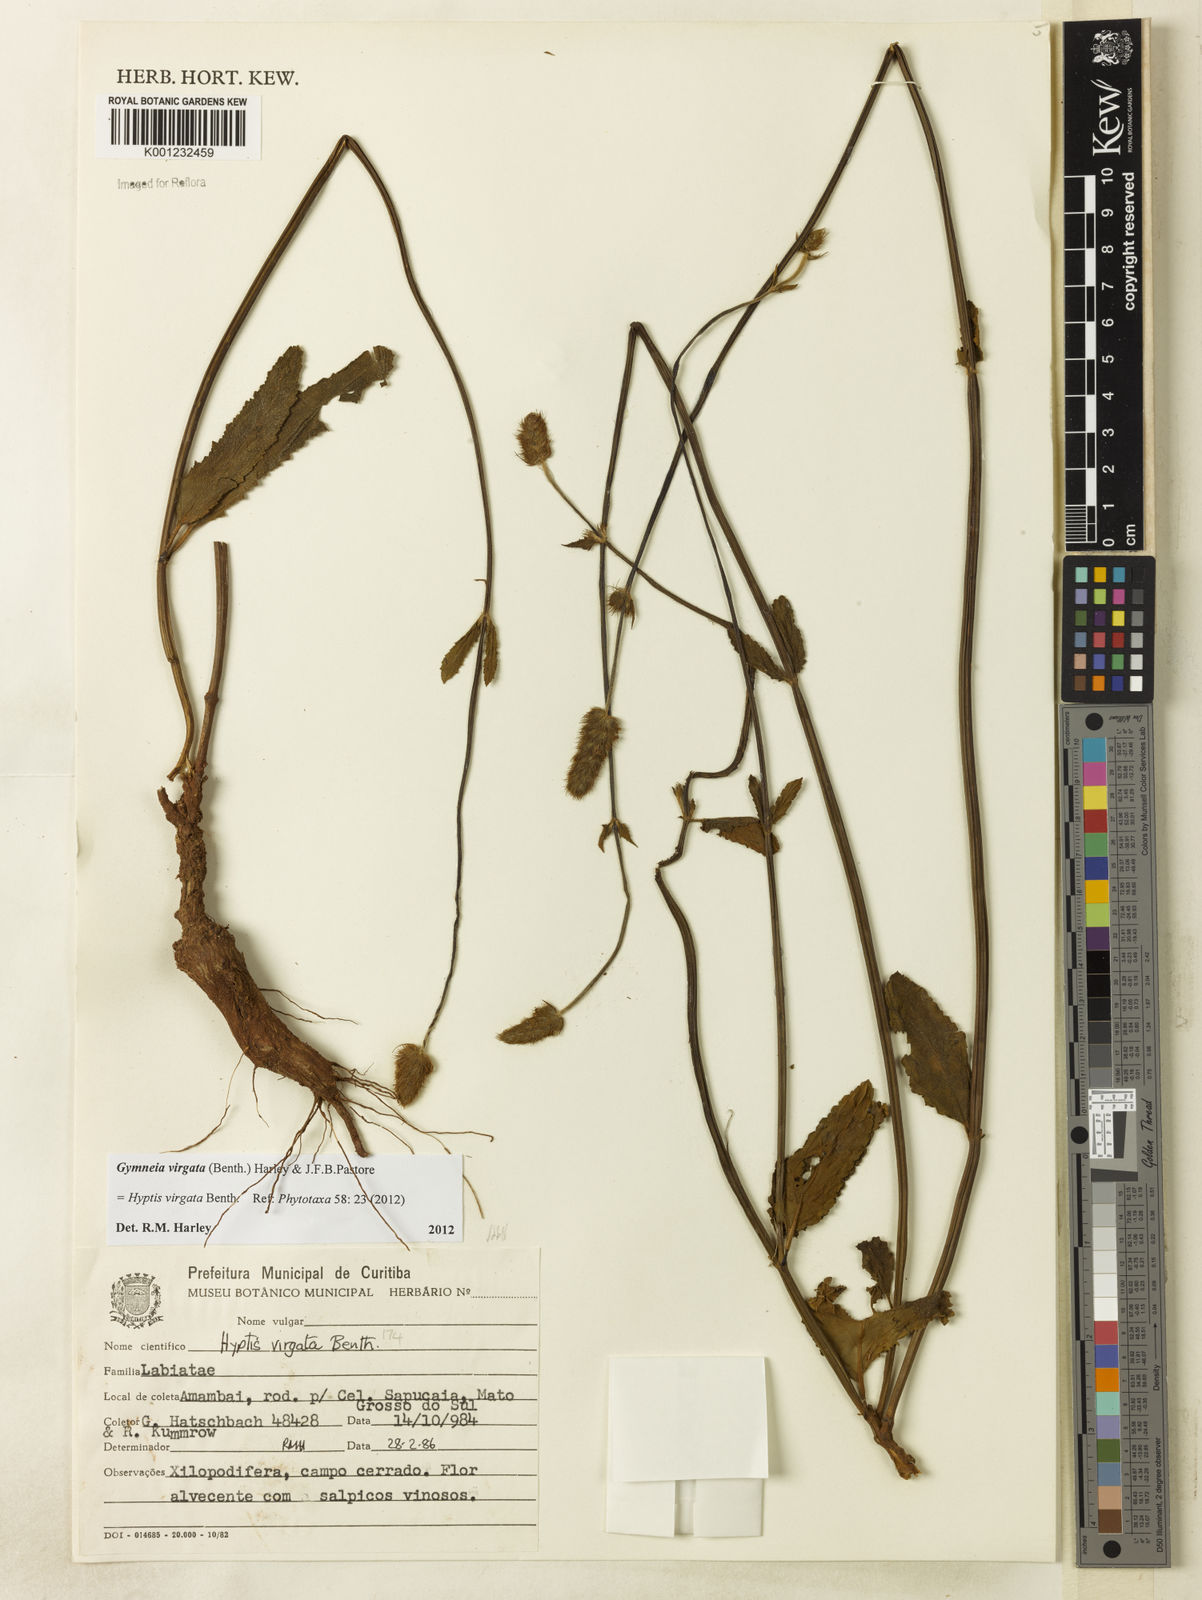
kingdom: Plantae
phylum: Tracheophyta
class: Magnoliopsida
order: Lamiales
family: Lamiaceae
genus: Gymneia
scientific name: Gymneia virgata
